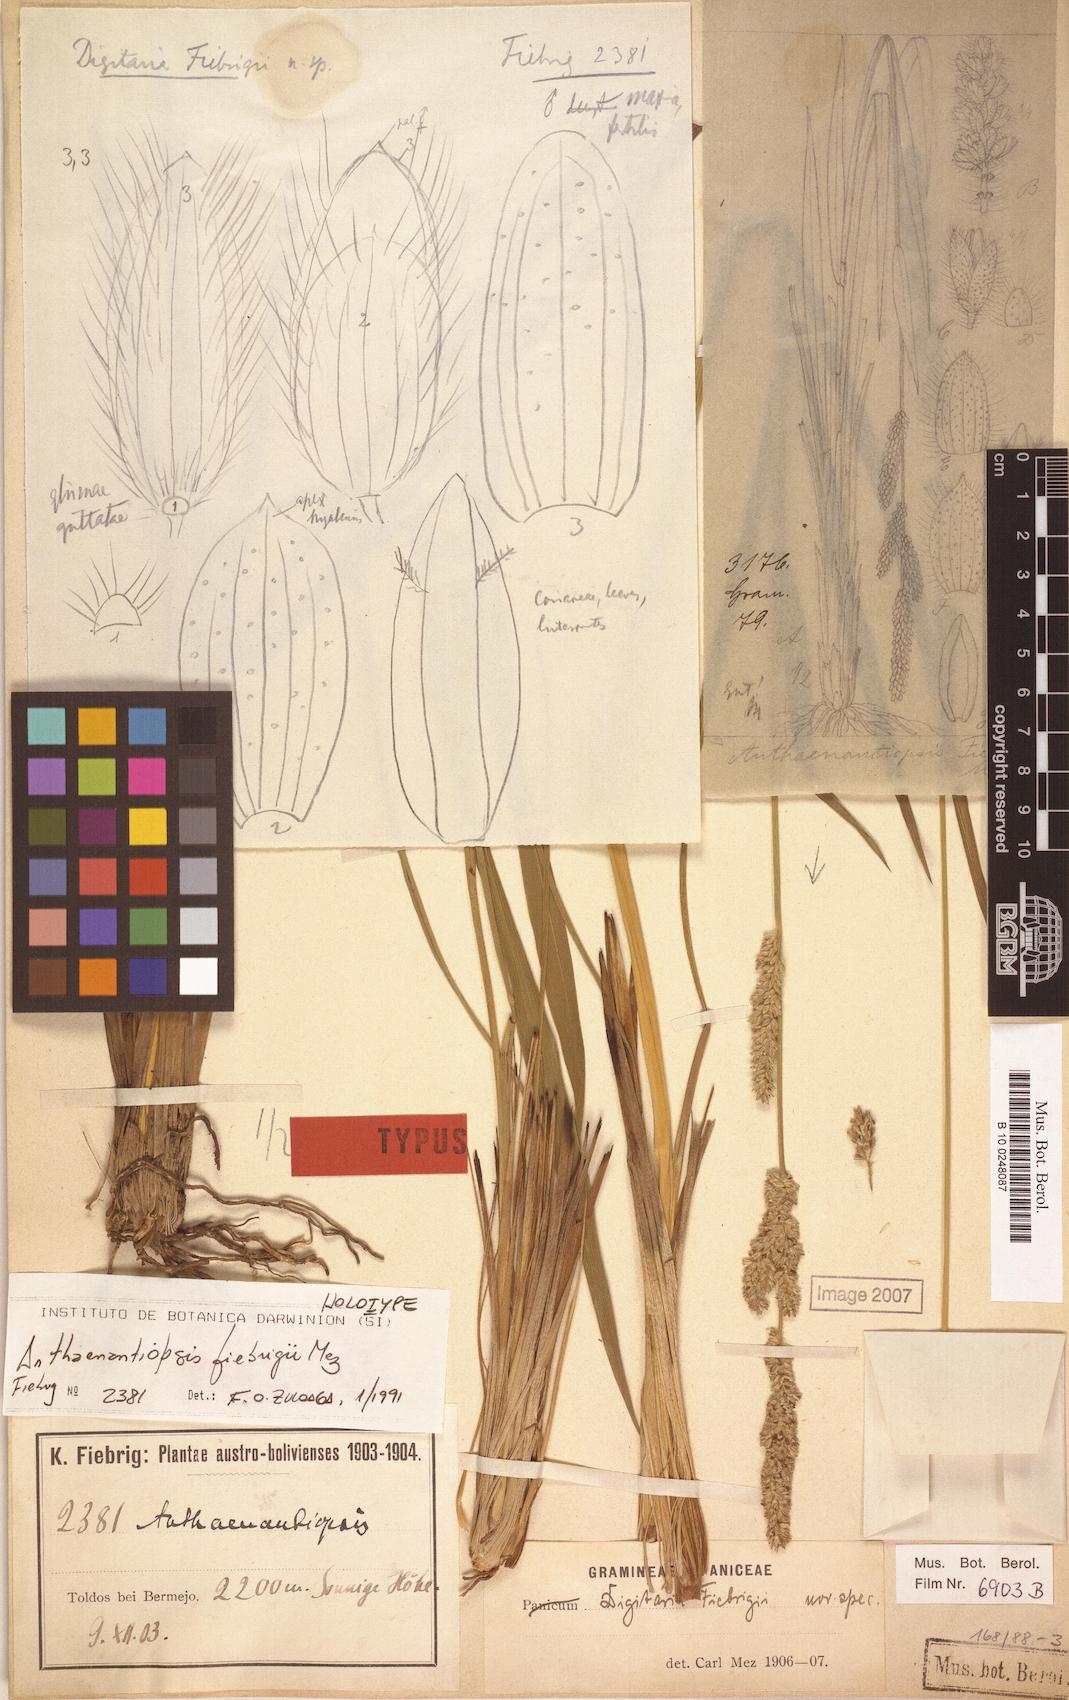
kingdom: Plantae
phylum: Tracheophyta
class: Liliopsida
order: Poales
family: Poaceae
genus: Anthaenantiopsis
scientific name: Anthaenantiopsis fiebrigii
